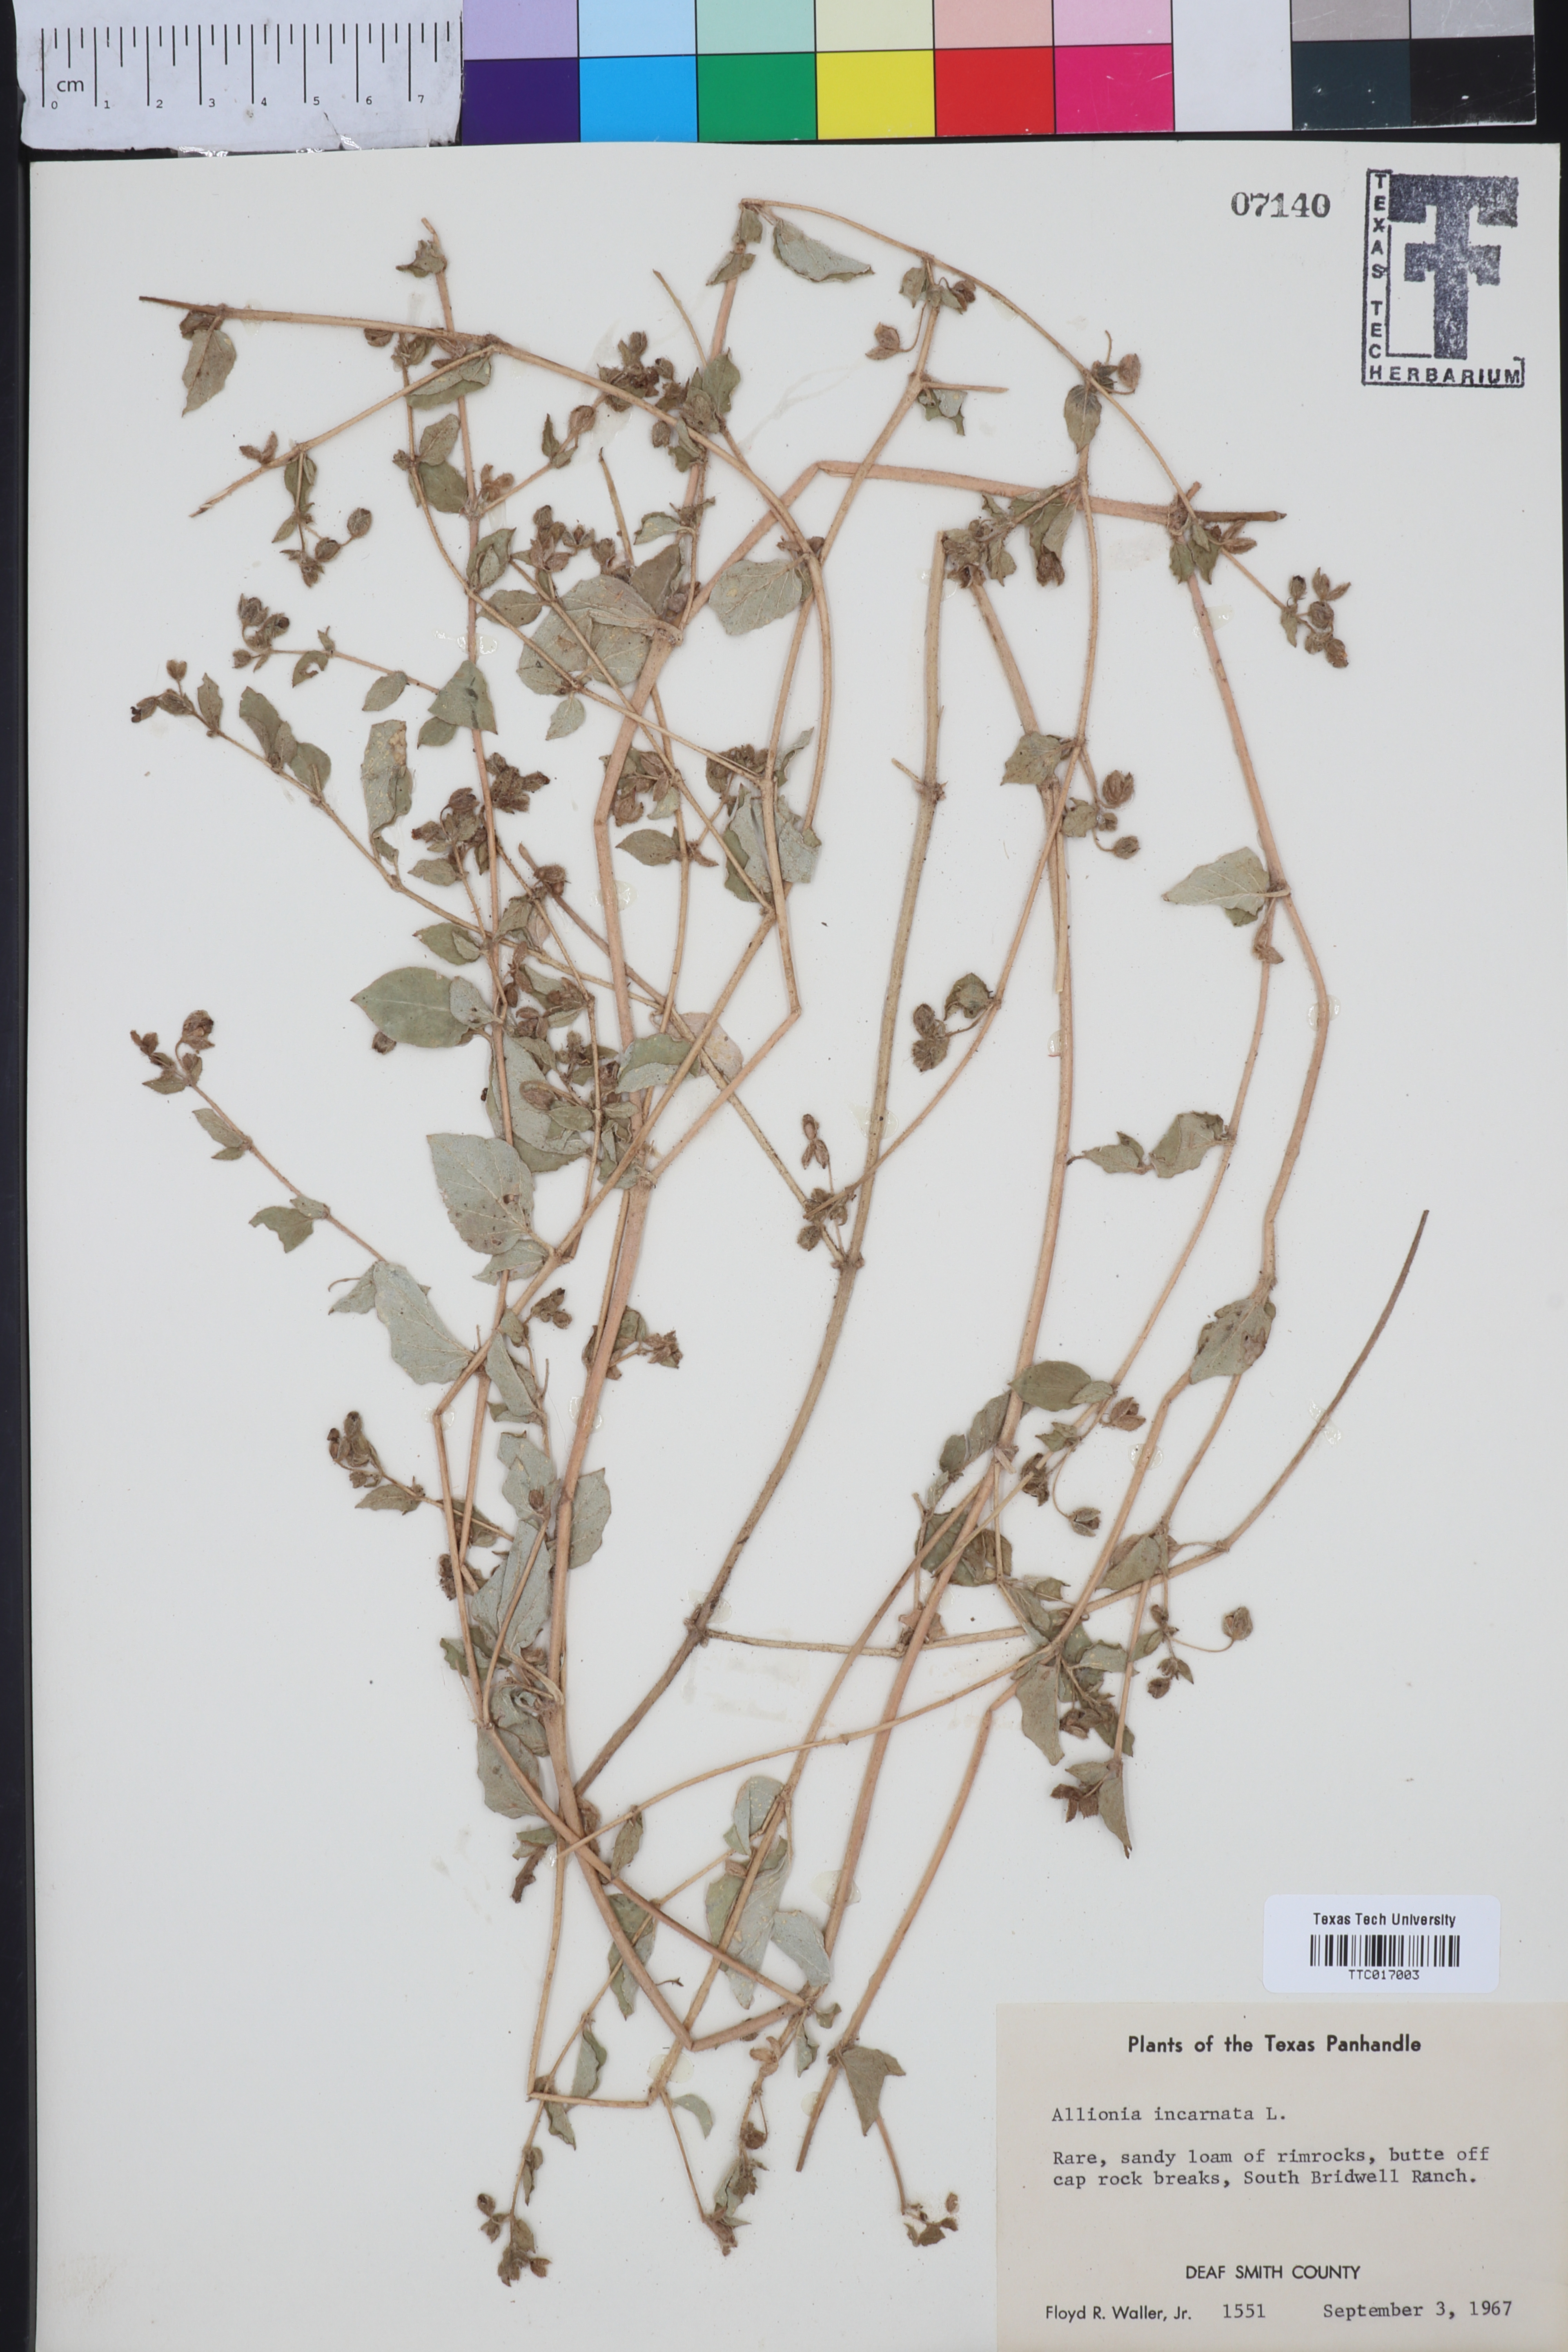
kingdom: Plantae
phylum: Tracheophyta
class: Magnoliopsida
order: Caryophyllales
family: Nyctaginaceae
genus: Allionia
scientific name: Allionia incarnata
